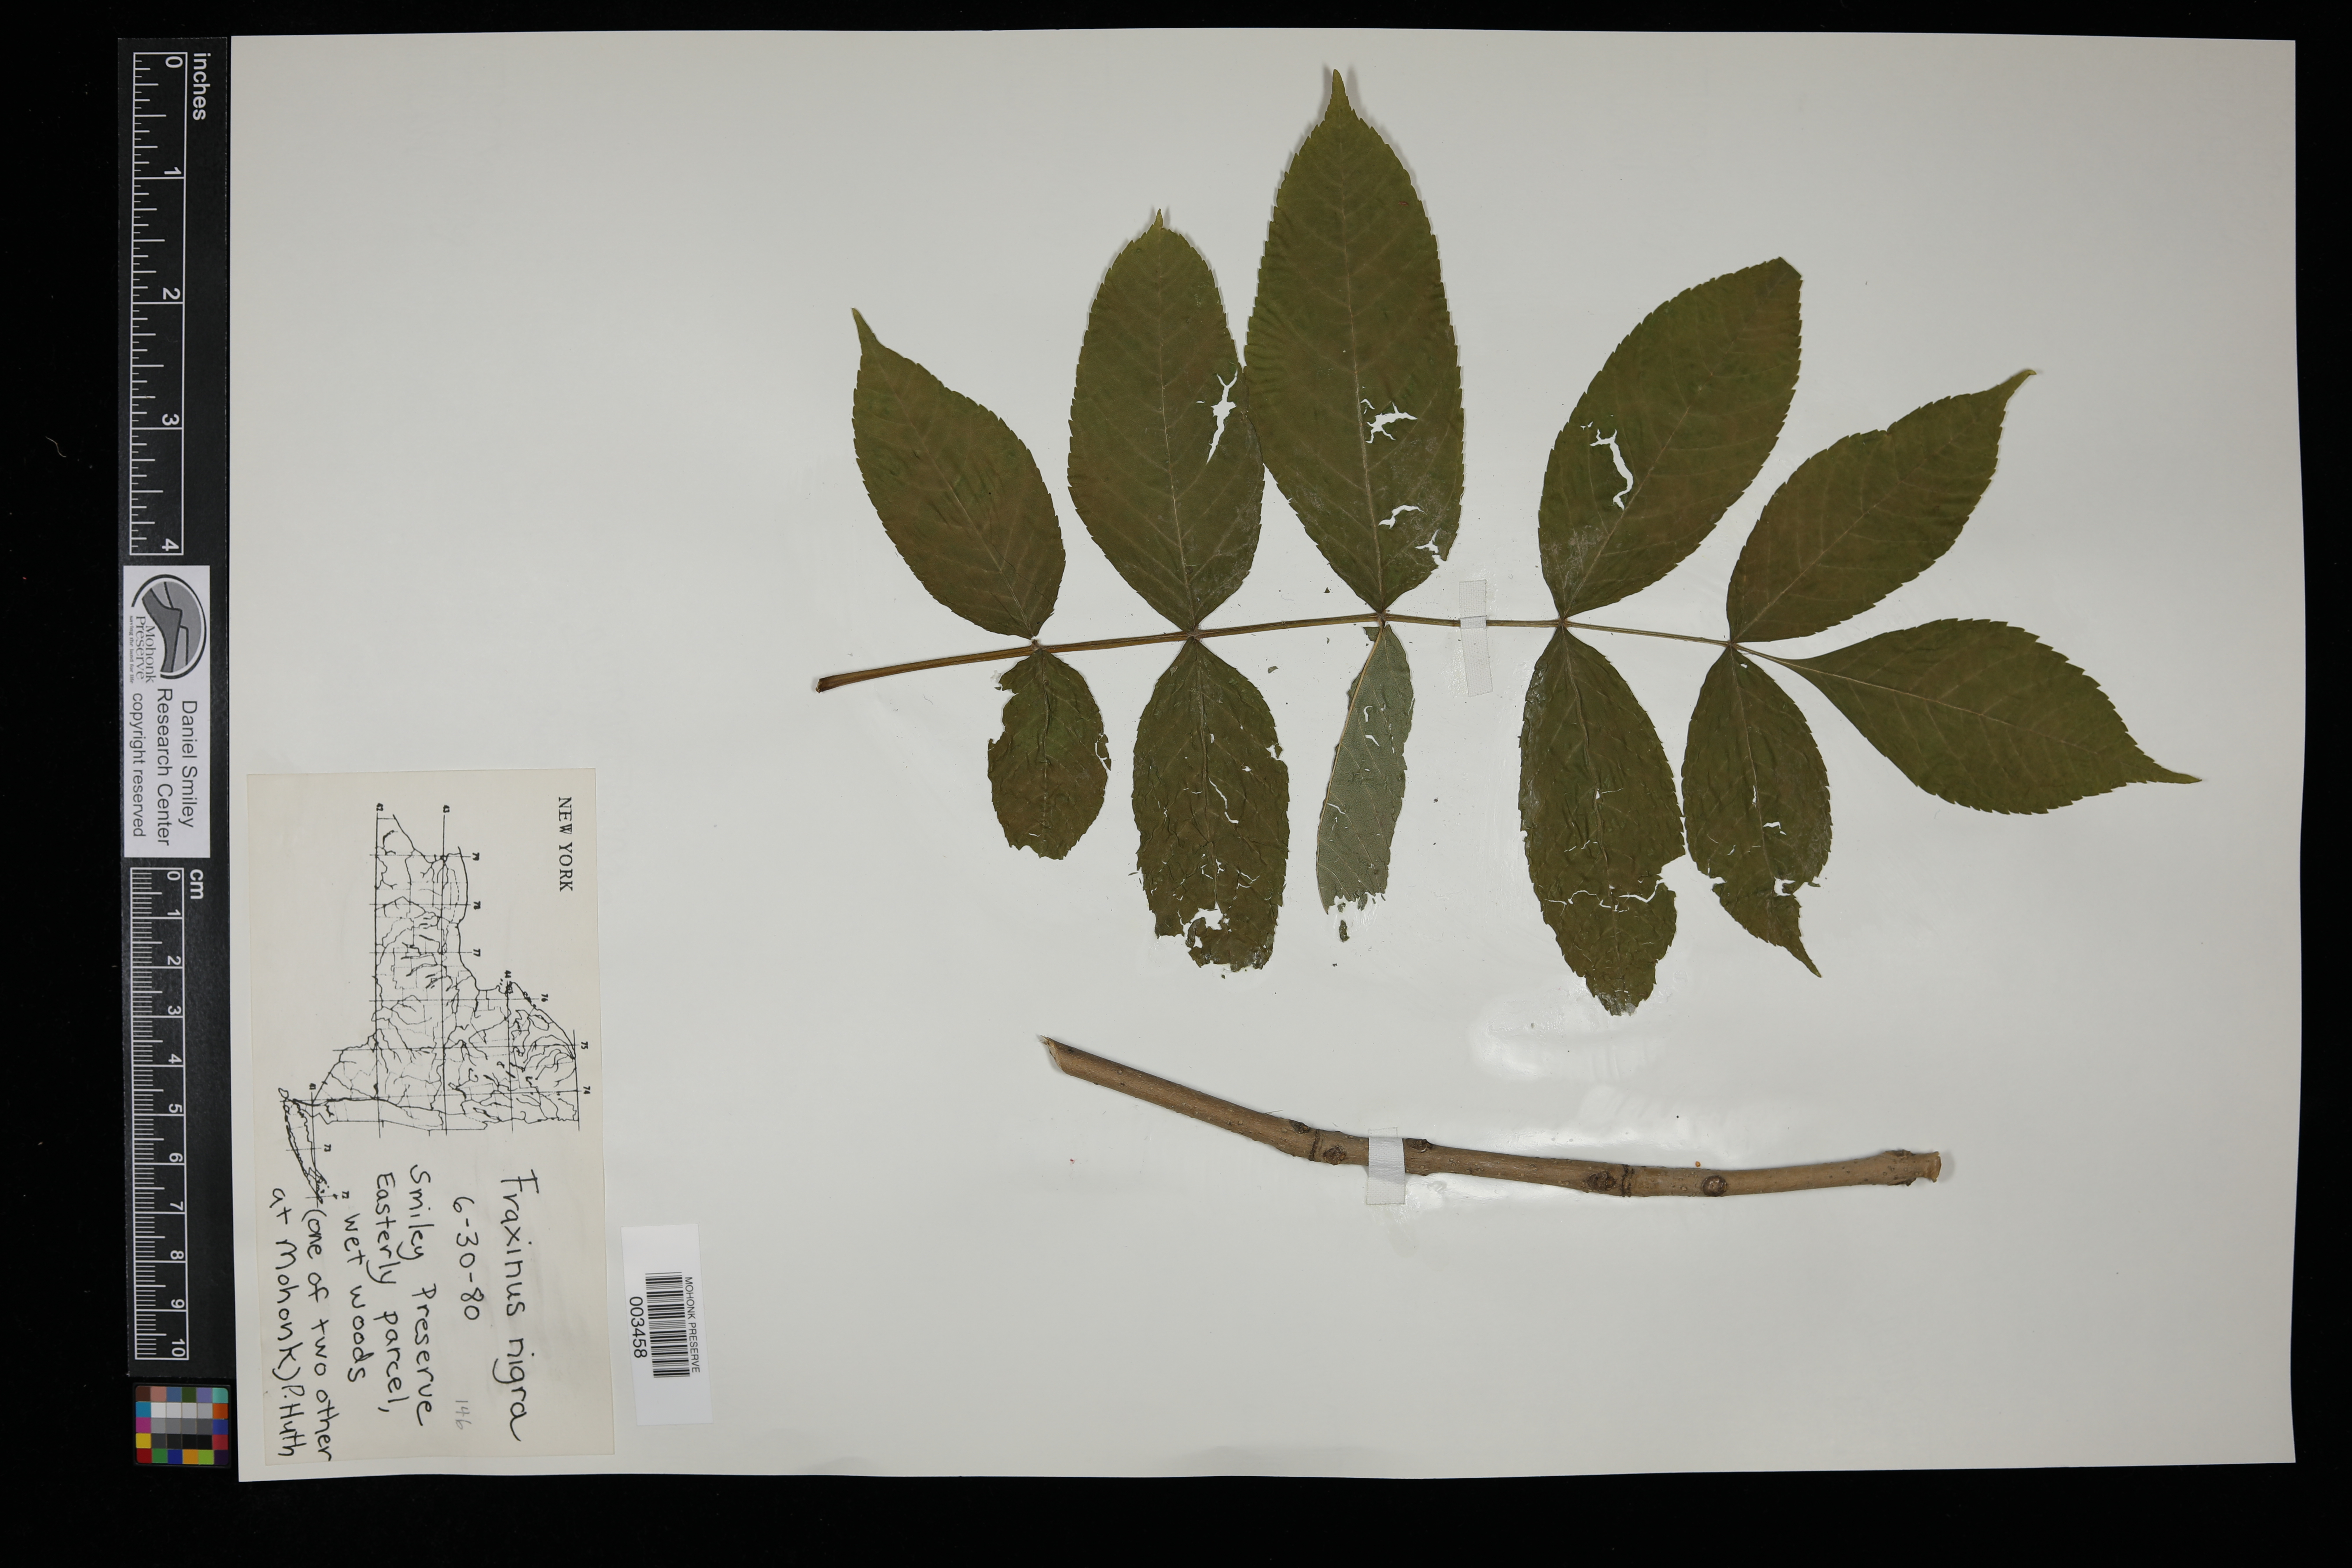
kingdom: Plantae
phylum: Tracheophyta
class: Magnoliopsida
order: Lamiales
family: Oleaceae
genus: Fraxinus
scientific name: Fraxinus nigra
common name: Black ash
